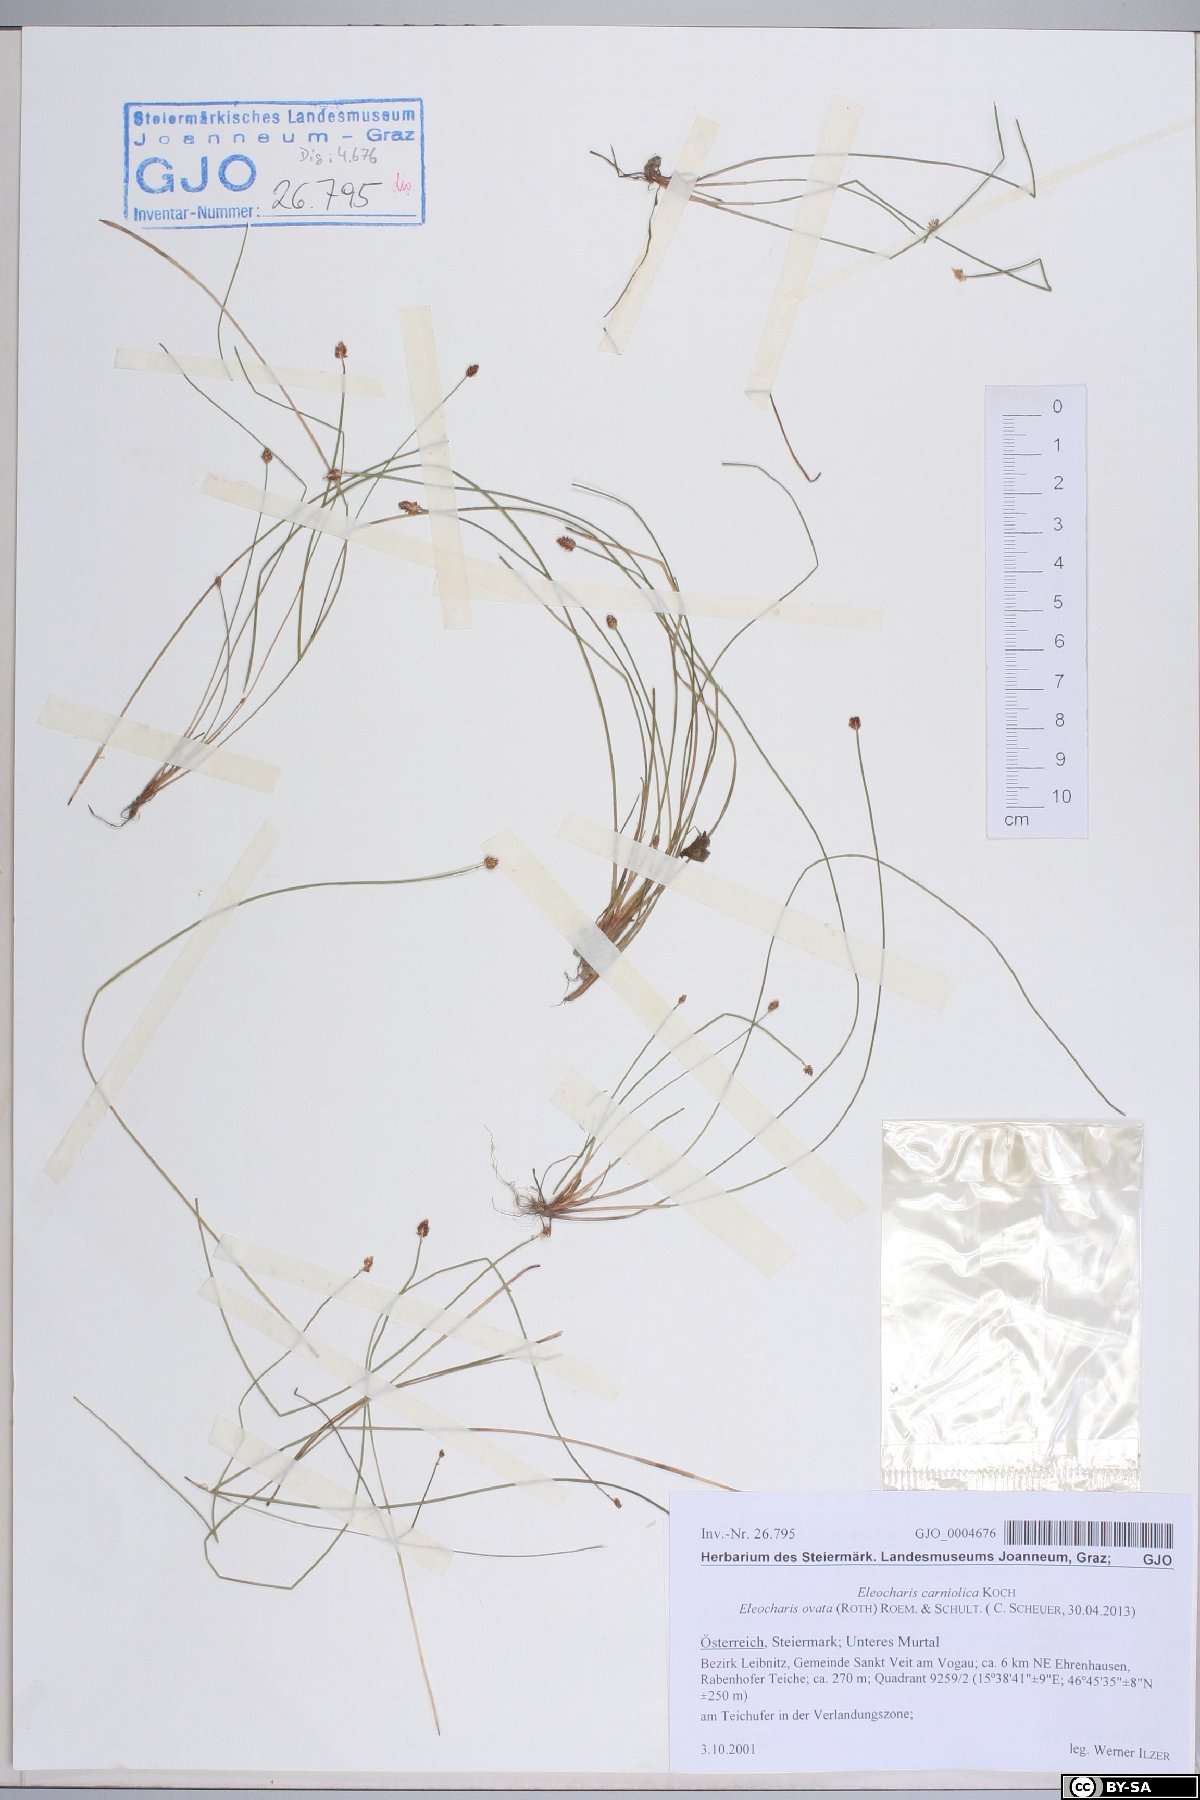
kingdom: Plantae
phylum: Tracheophyta
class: Liliopsida
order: Poales
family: Cyperaceae
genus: Eleocharis
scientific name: Eleocharis ovata
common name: Oval spike-rush
